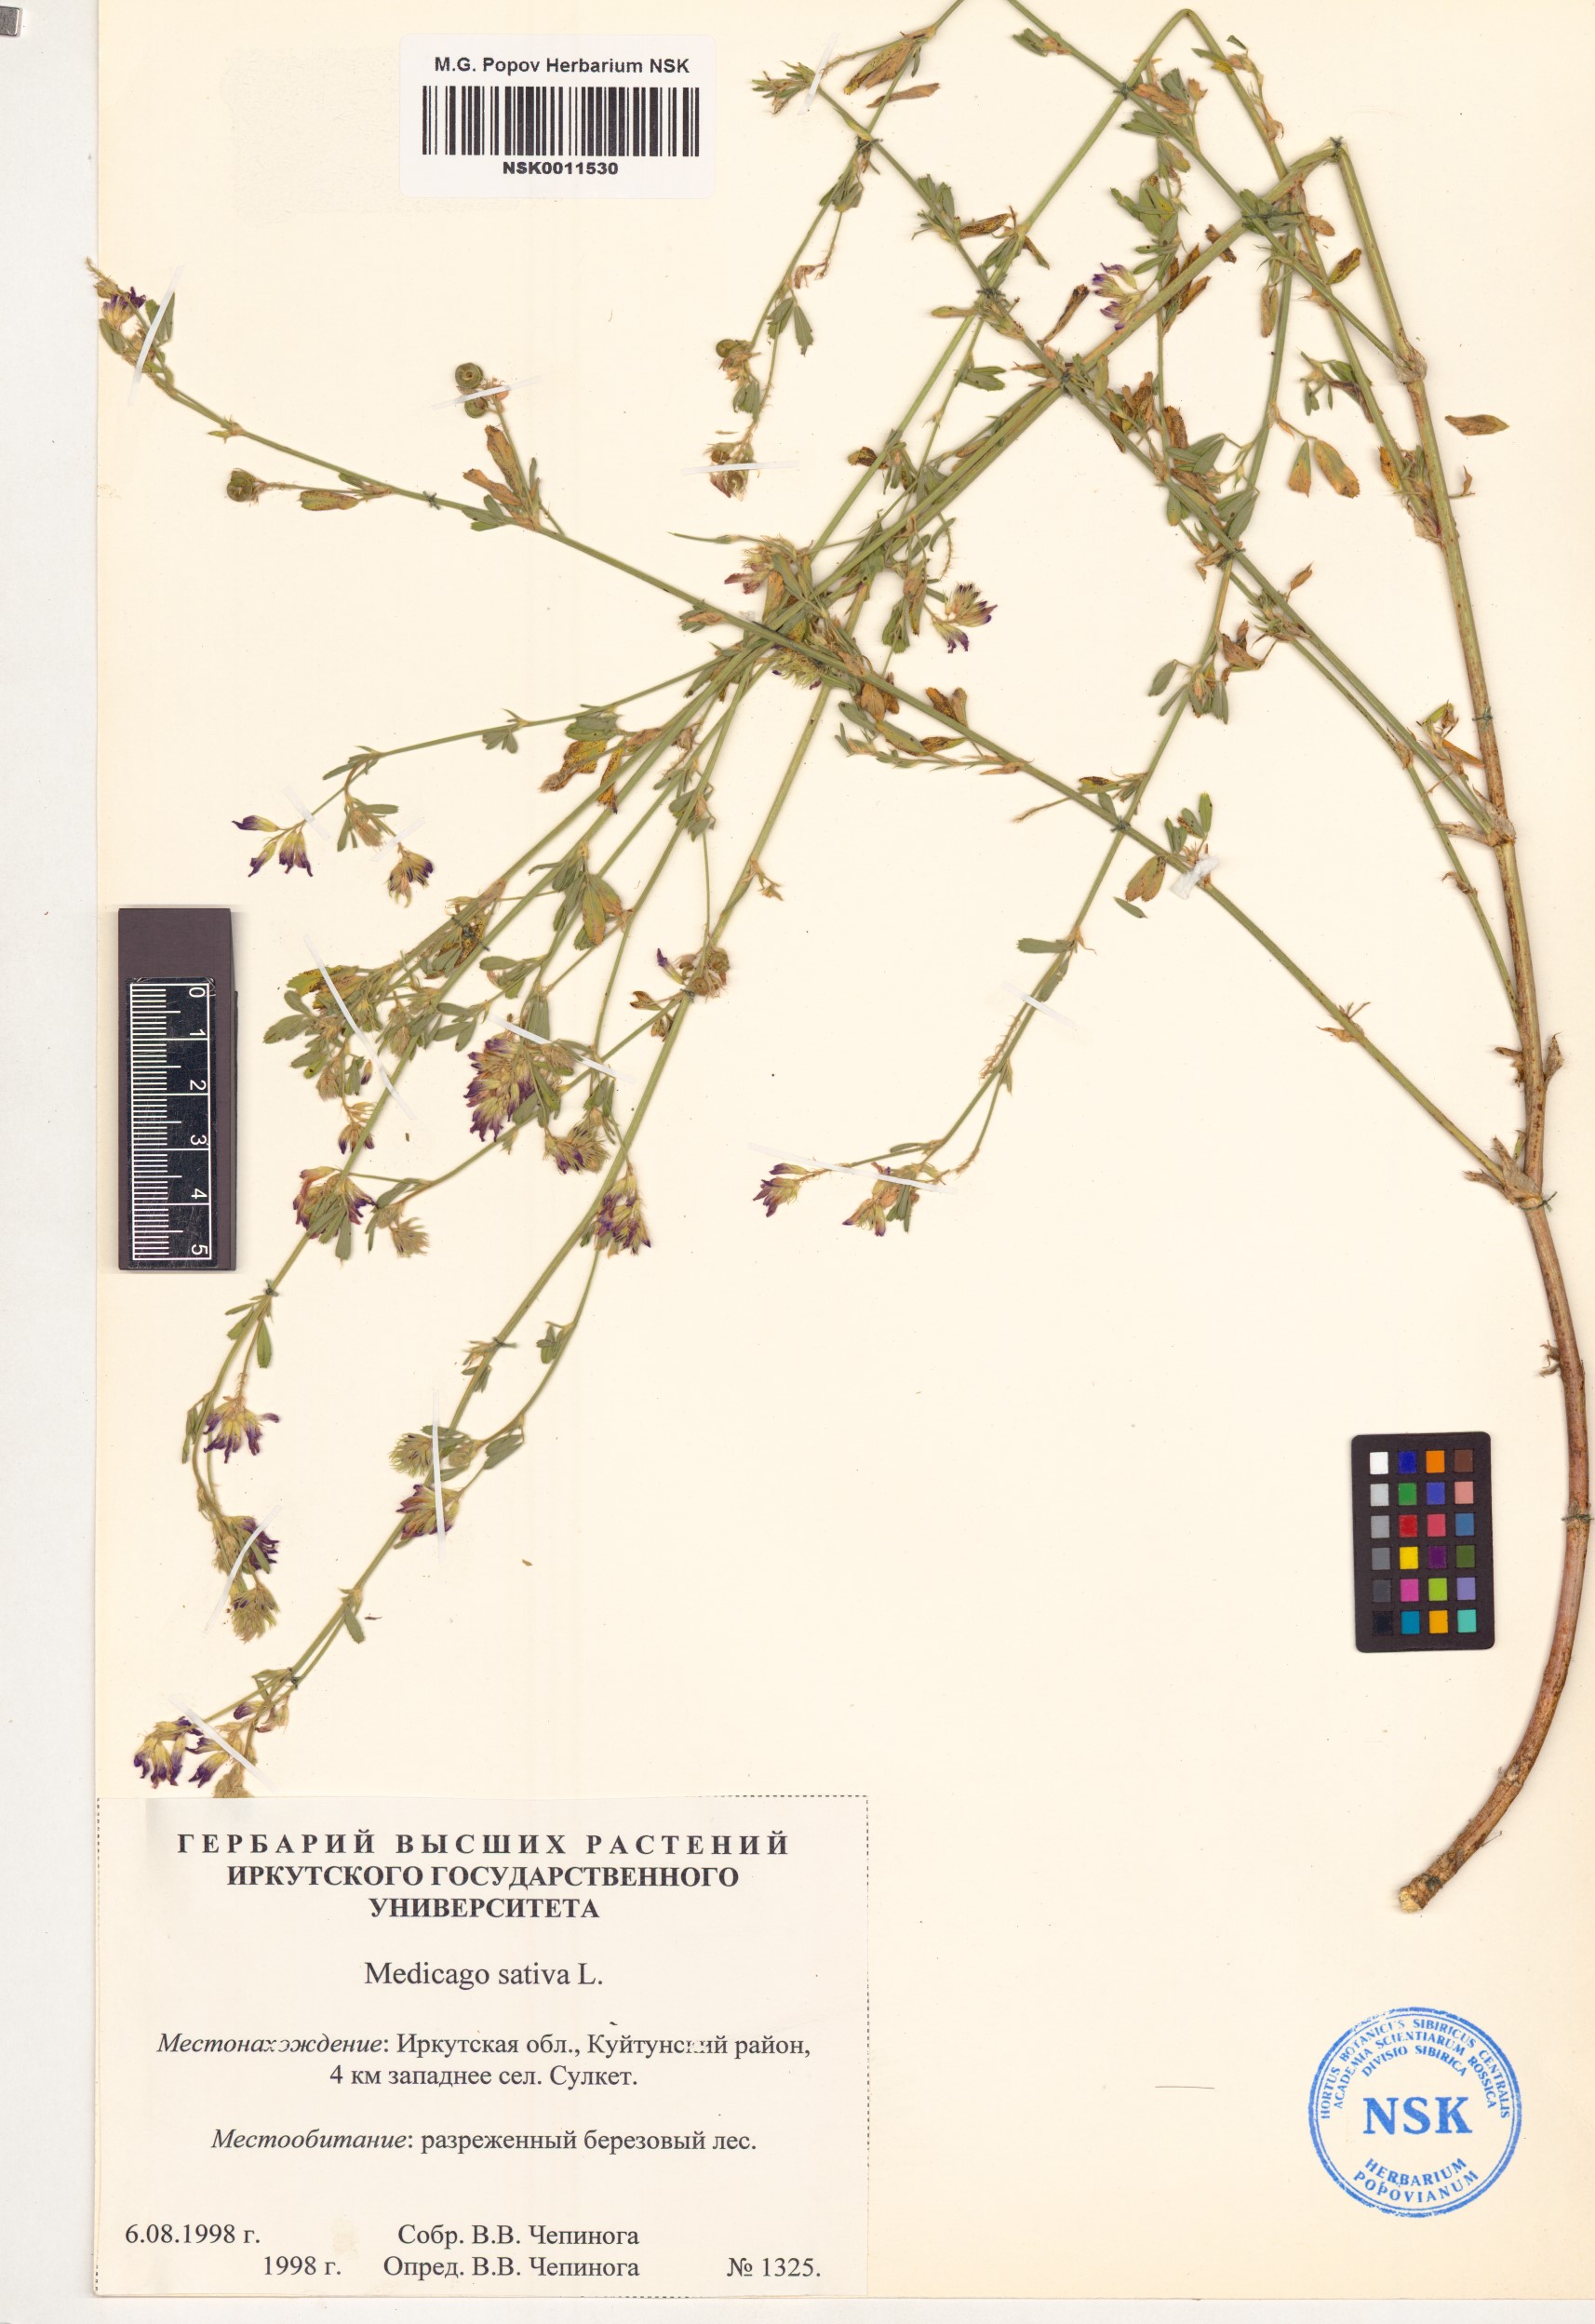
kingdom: Plantae
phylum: Tracheophyta
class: Magnoliopsida
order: Fabales
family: Fabaceae
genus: Medicago
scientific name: Medicago sativa
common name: Alfalfa
